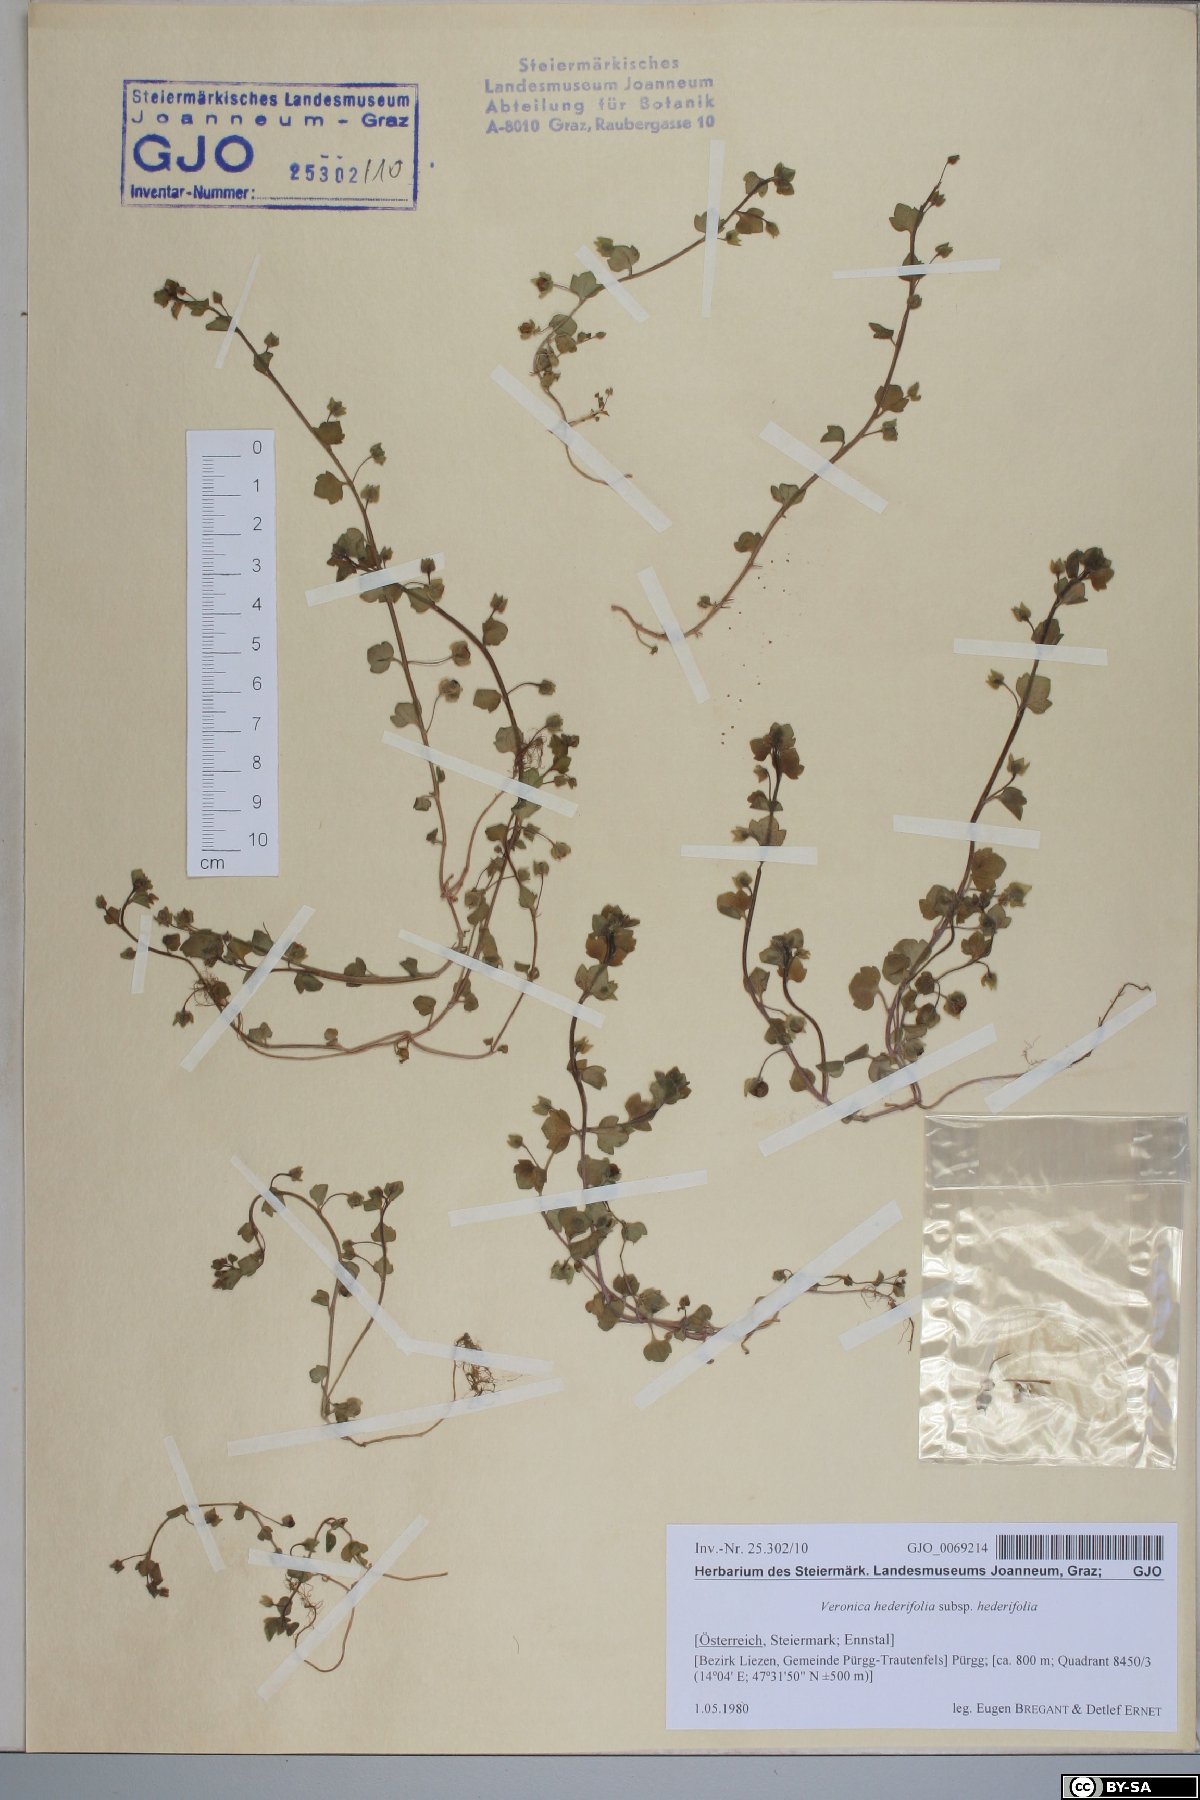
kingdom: Plantae
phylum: Tracheophyta
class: Magnoliopsida
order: Lamiales
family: Plantaginaceae
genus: Veronica
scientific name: Veronica hederifolia
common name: Ivy-leaved speedwell
